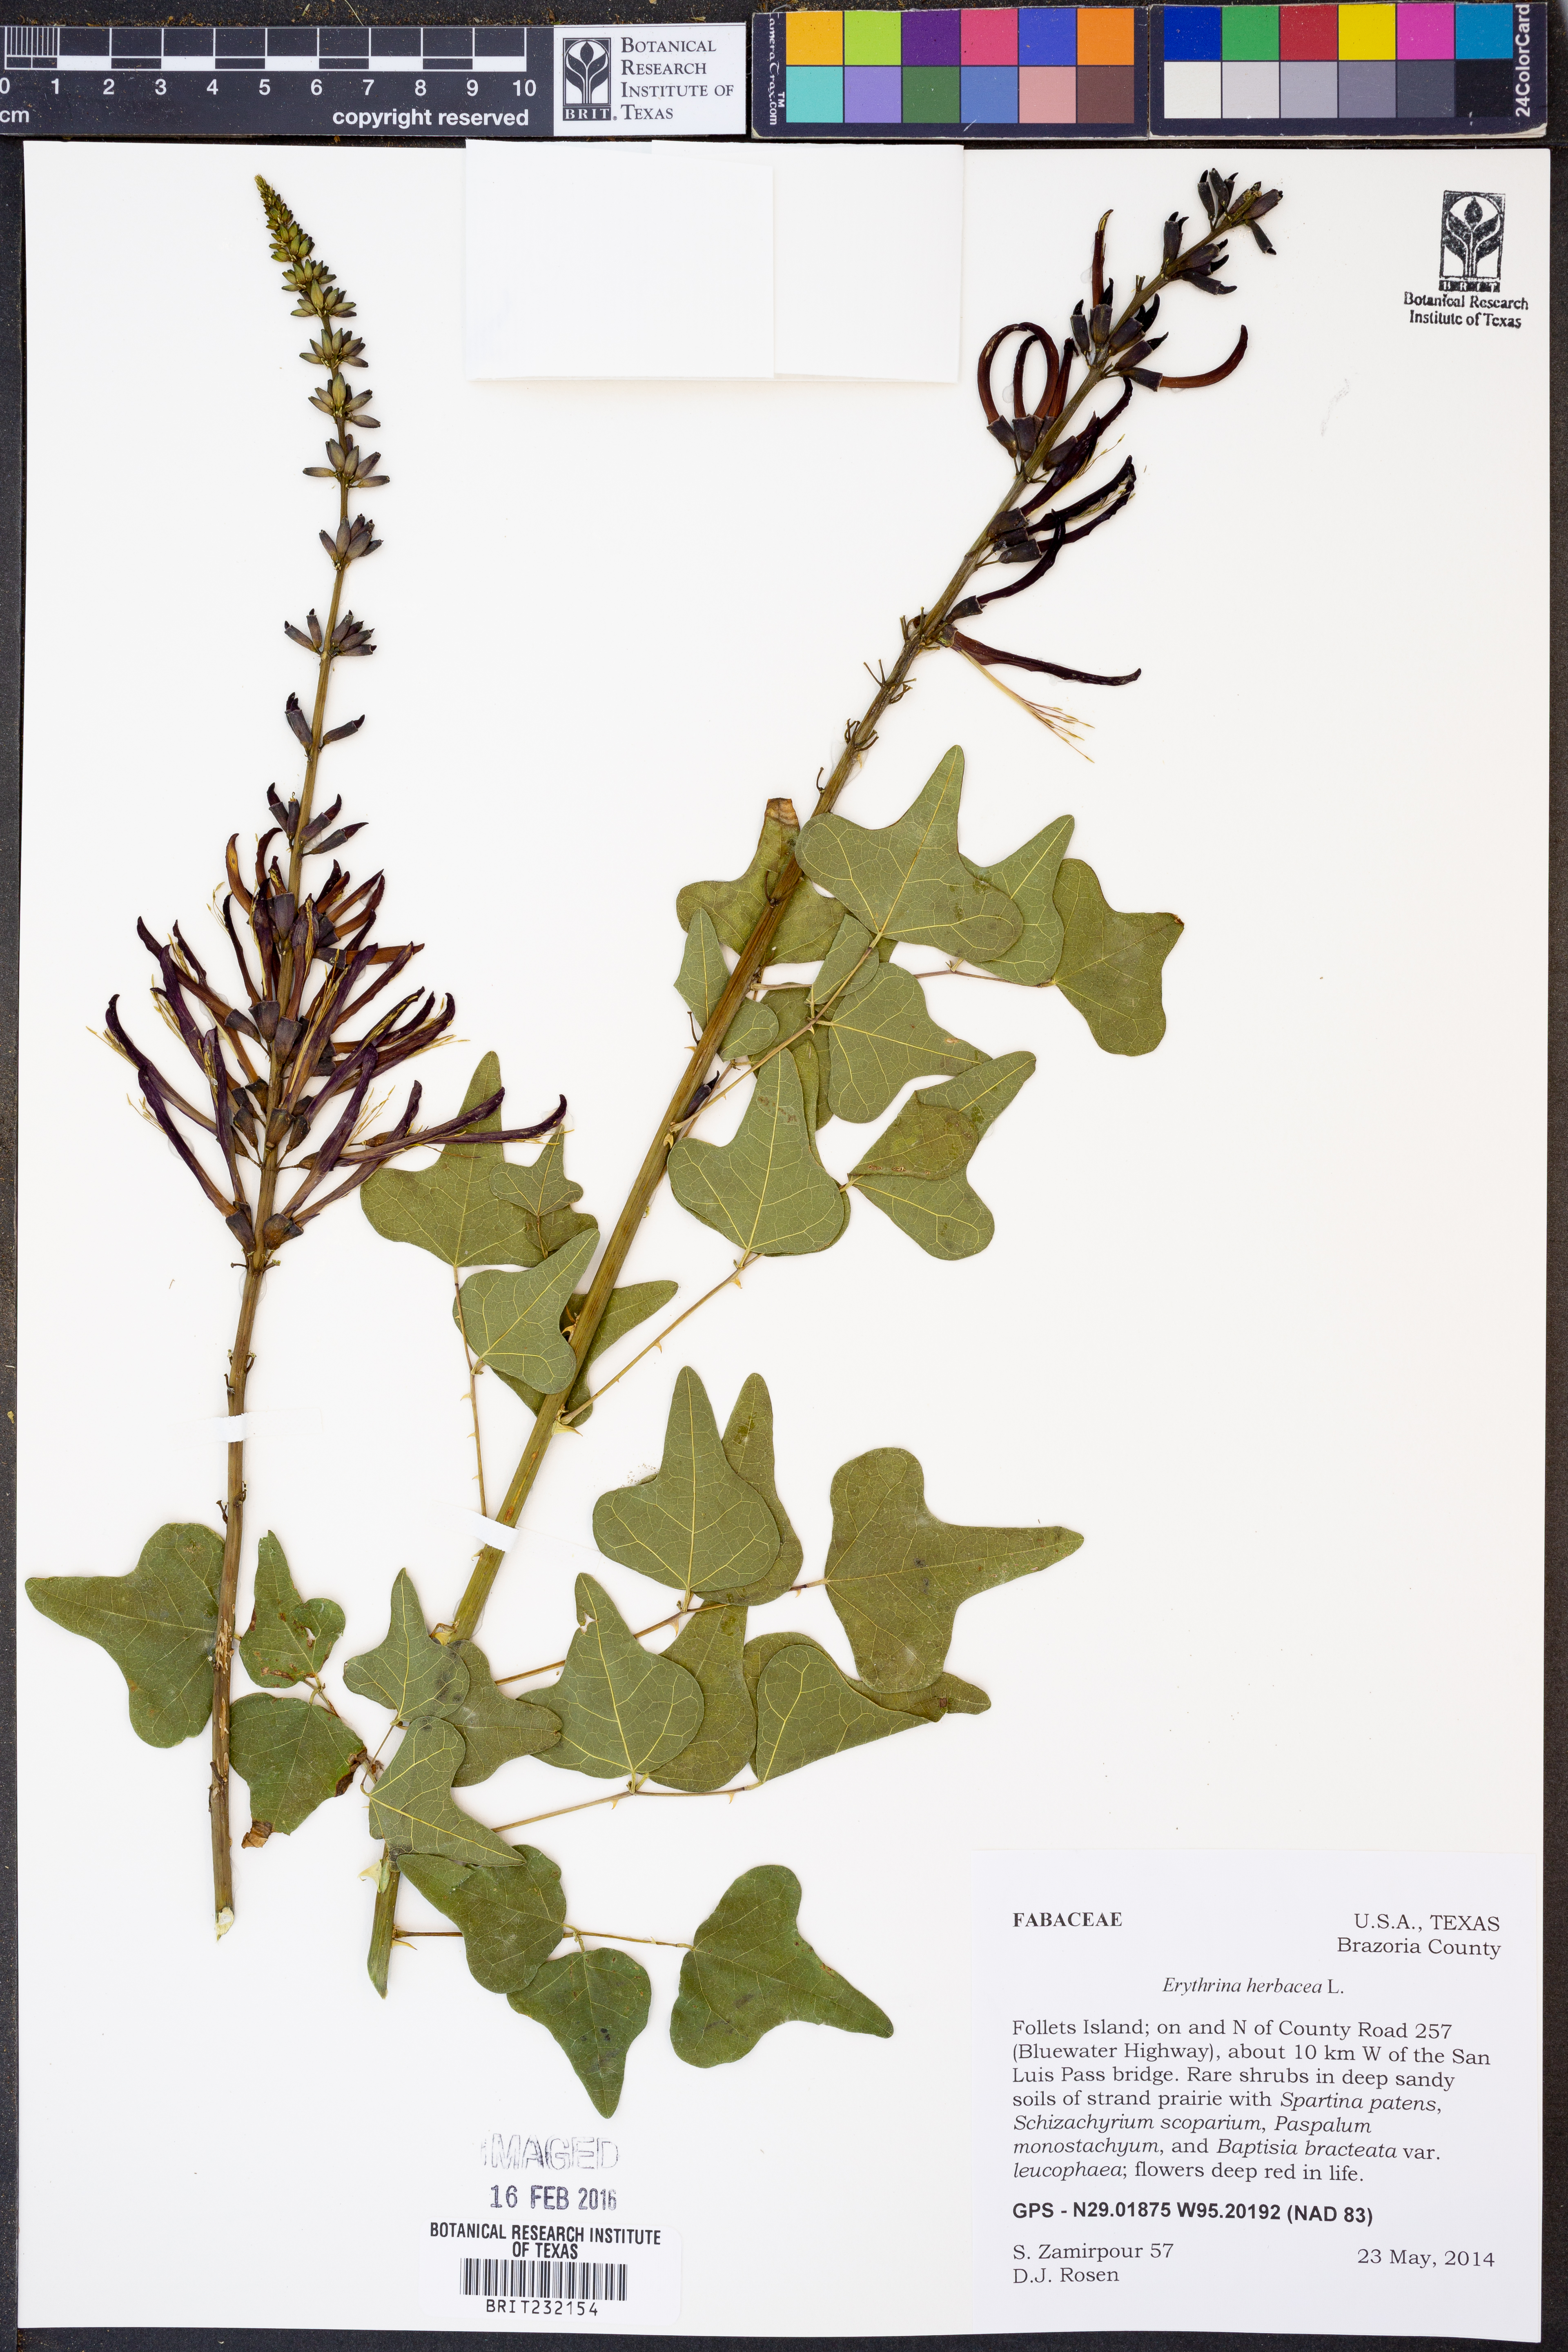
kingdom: Plantae
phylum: Tracheophyta
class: Magnoliopsida
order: Fabales
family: Fabaceae
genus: Erythrina
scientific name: Erythrina herbacea
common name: Coral-bean
